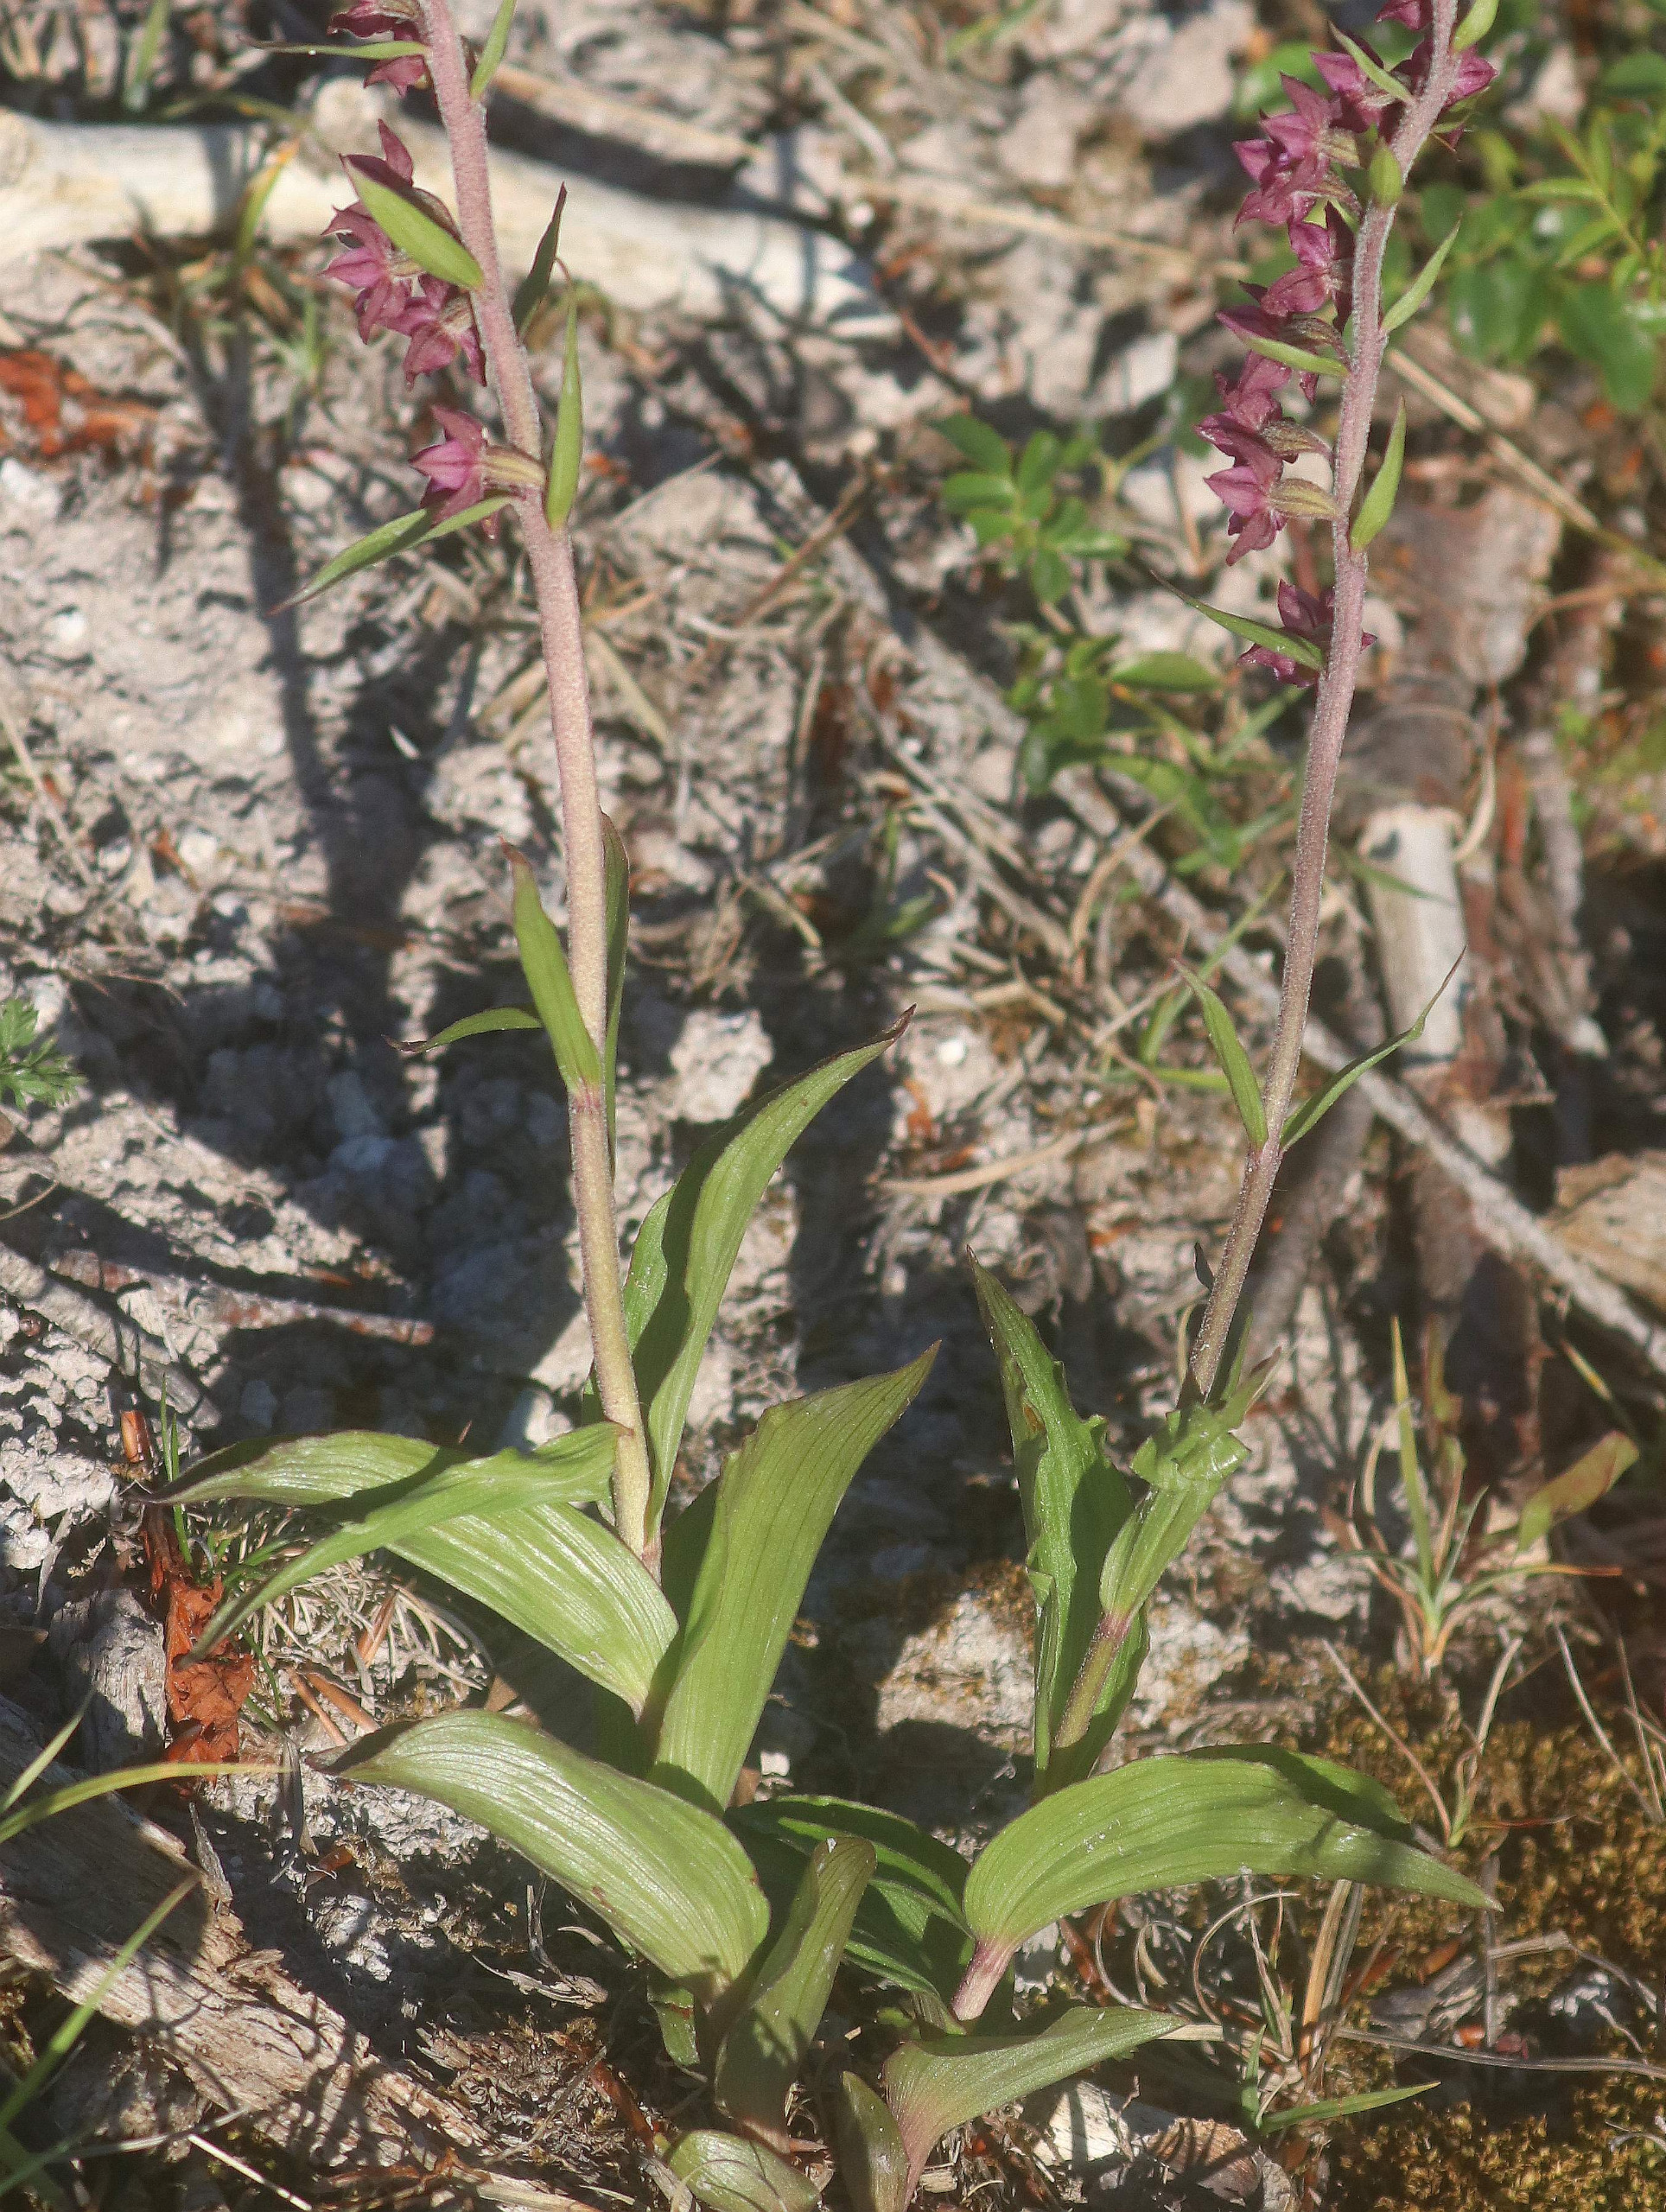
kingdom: Plantae
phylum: Tracheophyta
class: Liliopsida
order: Asparagales
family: Orchidaceae
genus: Epipactis
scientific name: Epipactis atrorubens
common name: Rød hullæbe
